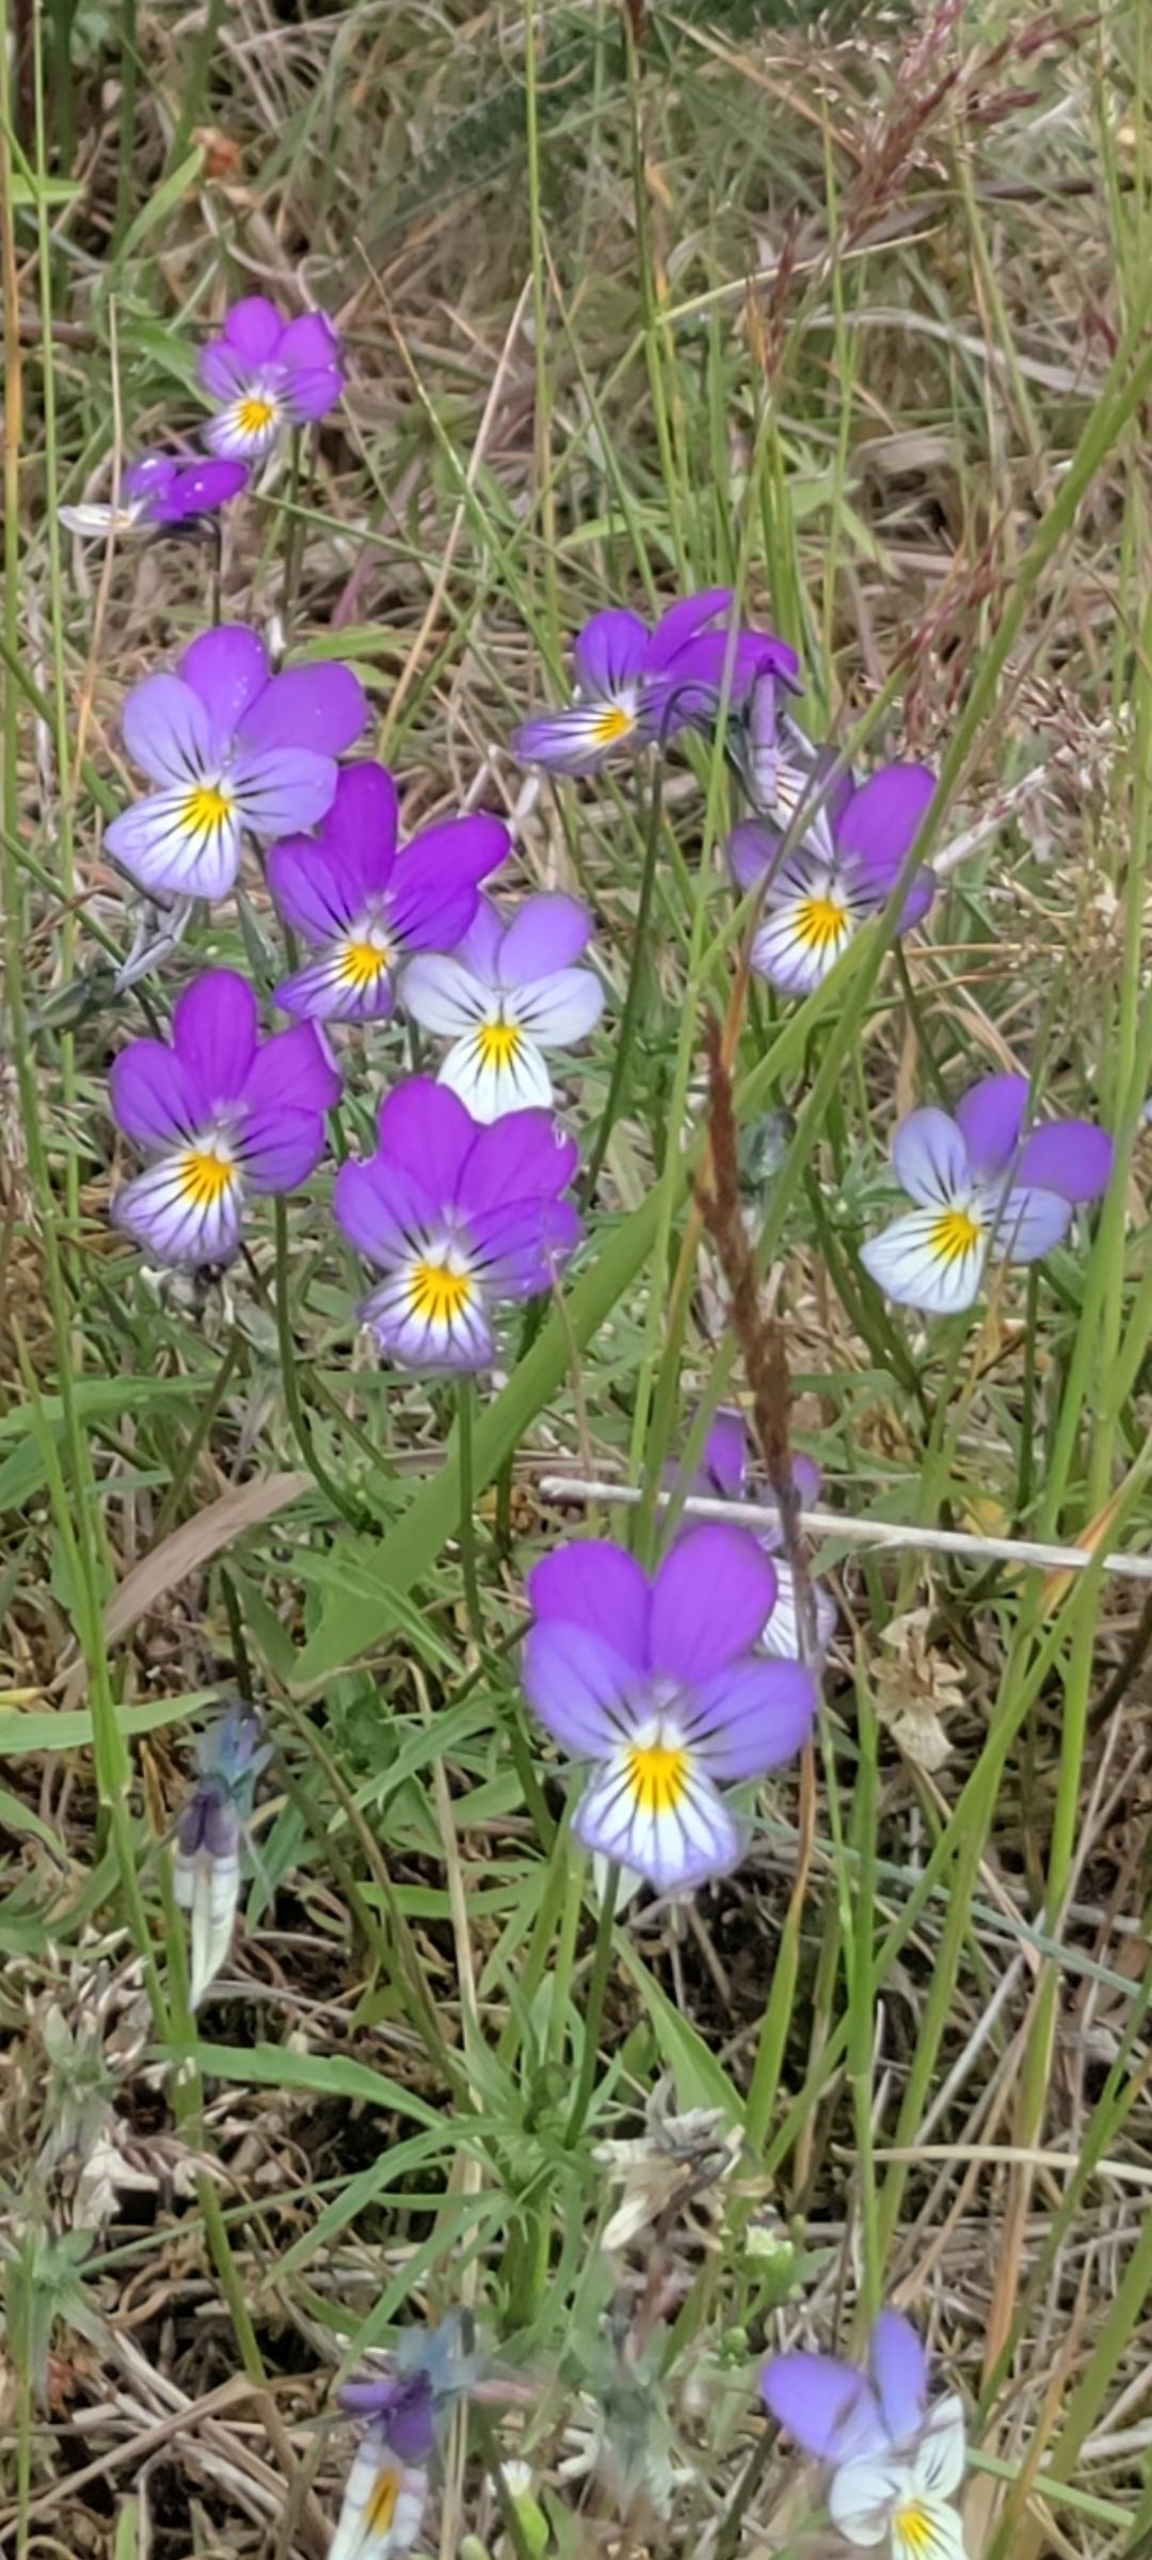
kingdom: Plantae
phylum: Tracheophyta
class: Magnoliopsida
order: Malpighiales
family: Violaceae
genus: Viola
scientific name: Viola tricolor
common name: Stedmoderblomst
